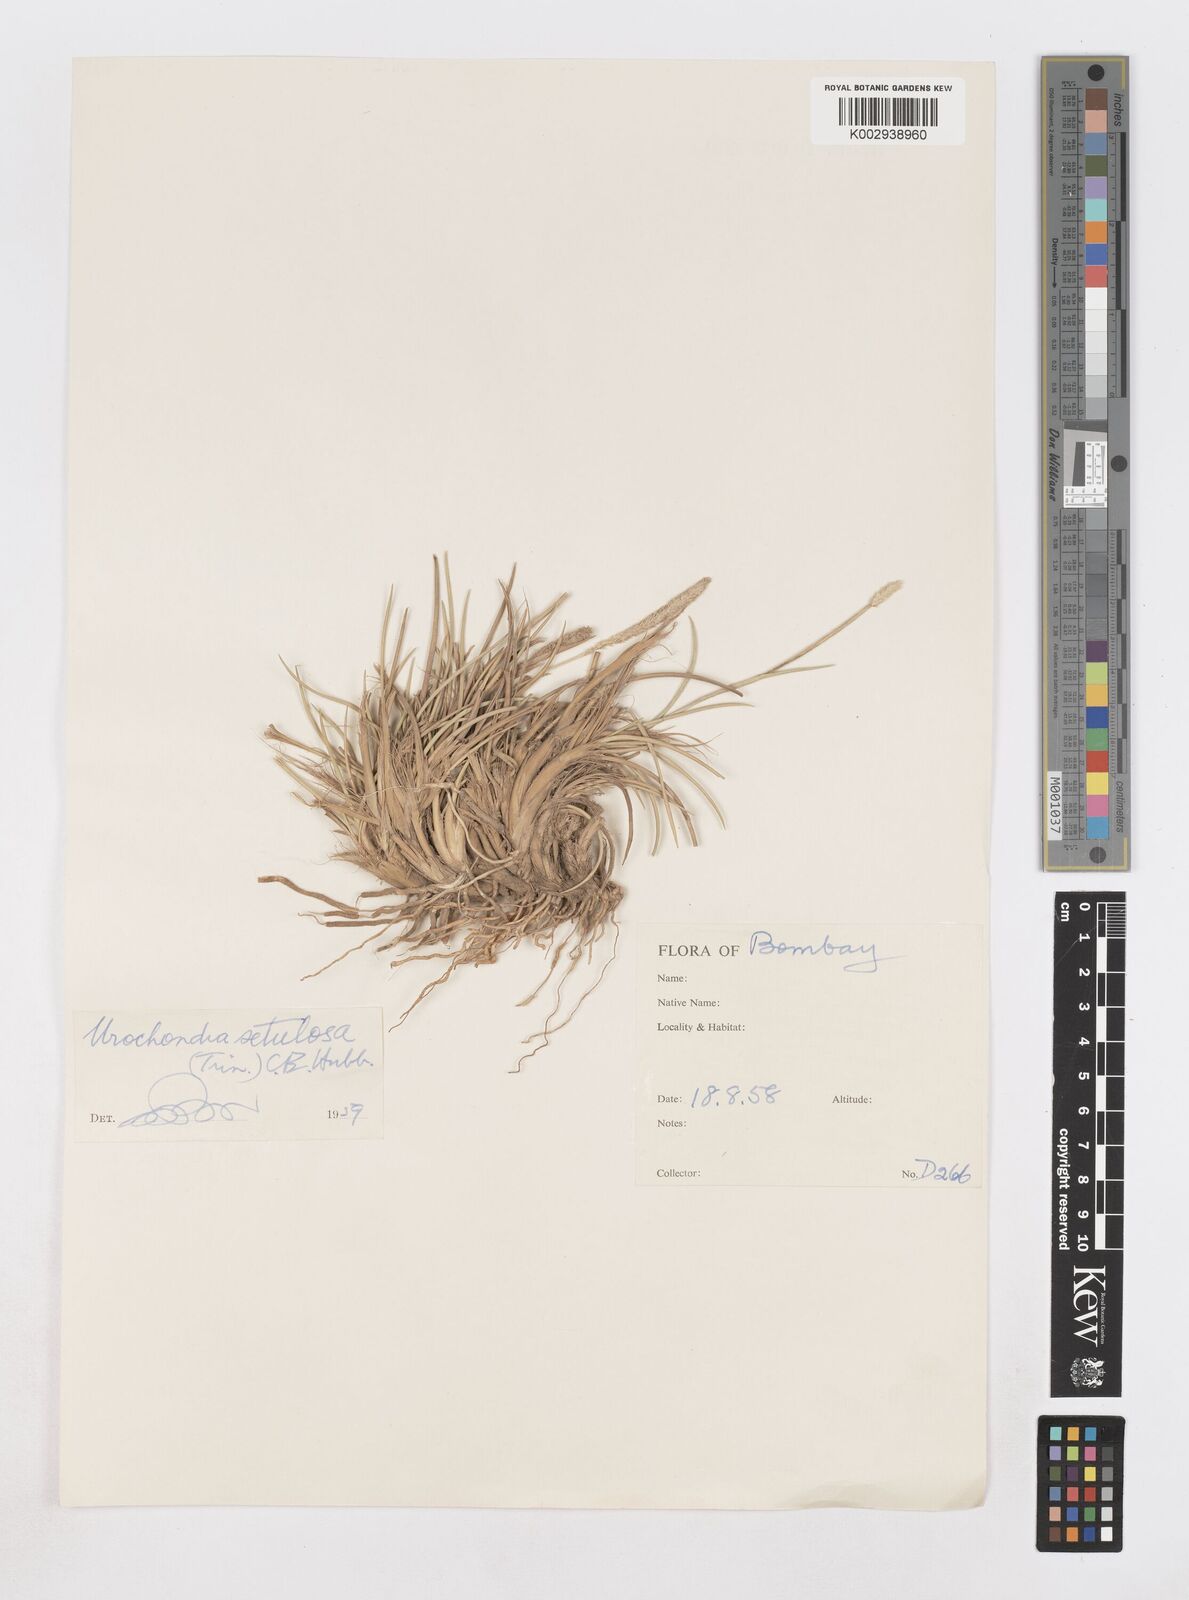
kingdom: Plantae
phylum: Tracheophyta
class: Liliopsida
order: Poales
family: Poaceae
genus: Urochondra
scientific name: Urochondra setulosa
